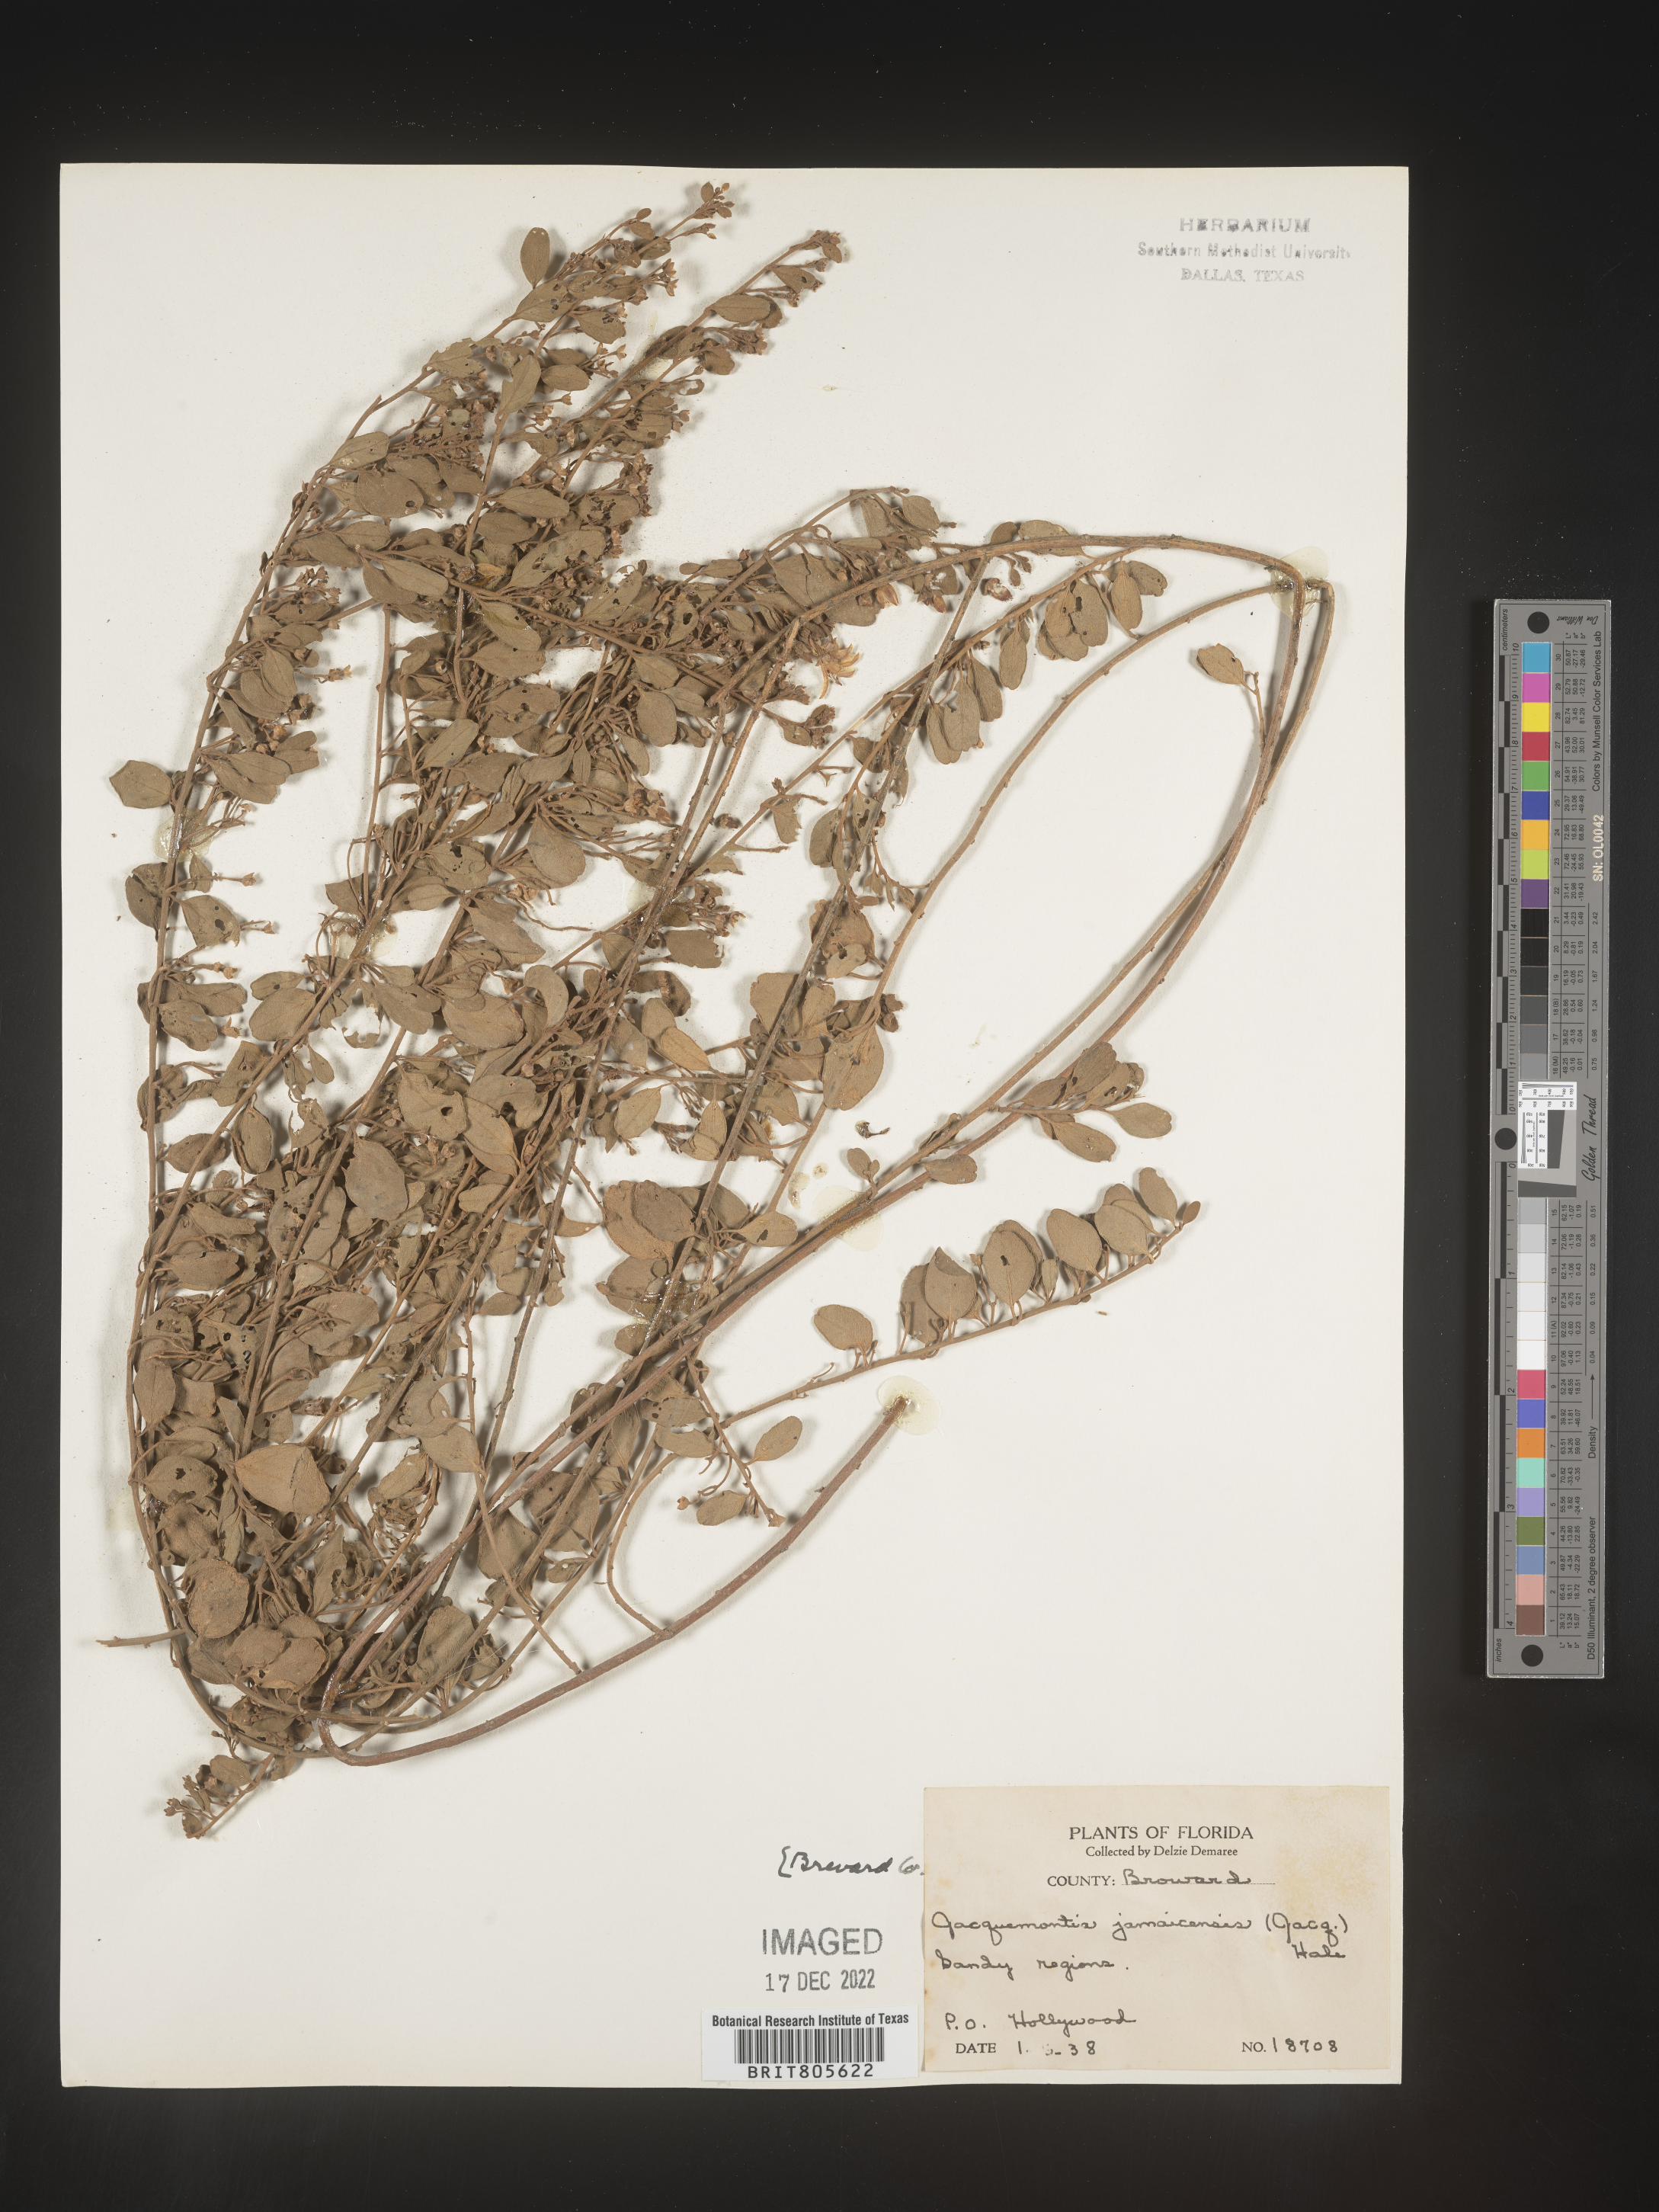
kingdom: Plantae
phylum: Tracheophyta
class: Magnoliopsida
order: Solanales
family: Convolvulaceae
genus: Jacquemontia
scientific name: Jacquemontia
